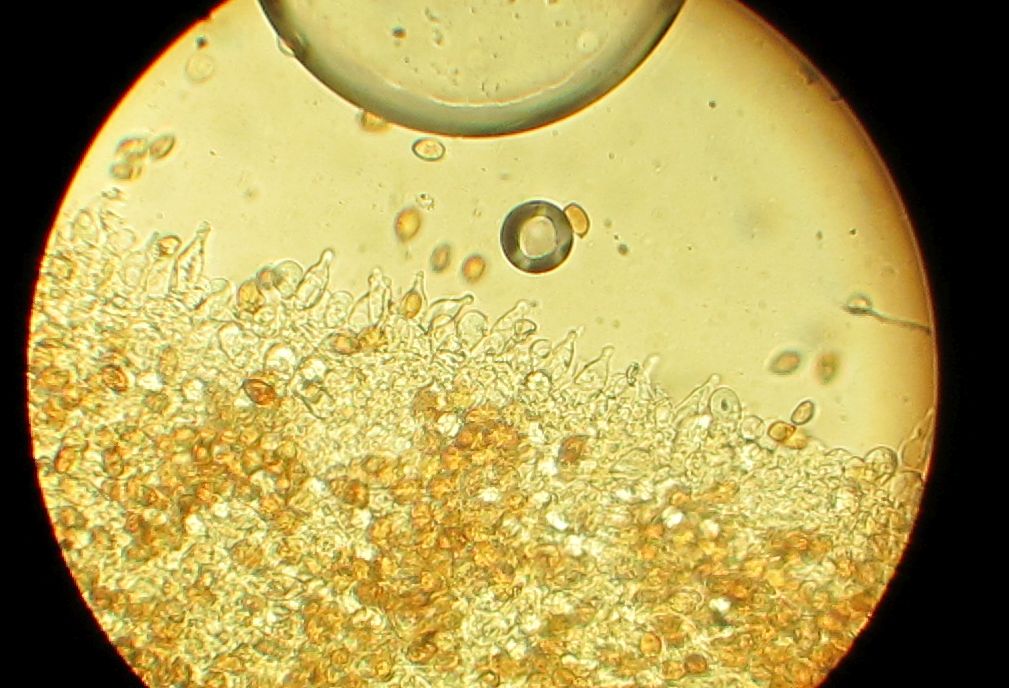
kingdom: Fungi
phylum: Basidiomycota
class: Agaricomycetes
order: Agaricales
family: Strophariaceae
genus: Agrocybe
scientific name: Agrocybe pediades
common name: almindelig agerhat
